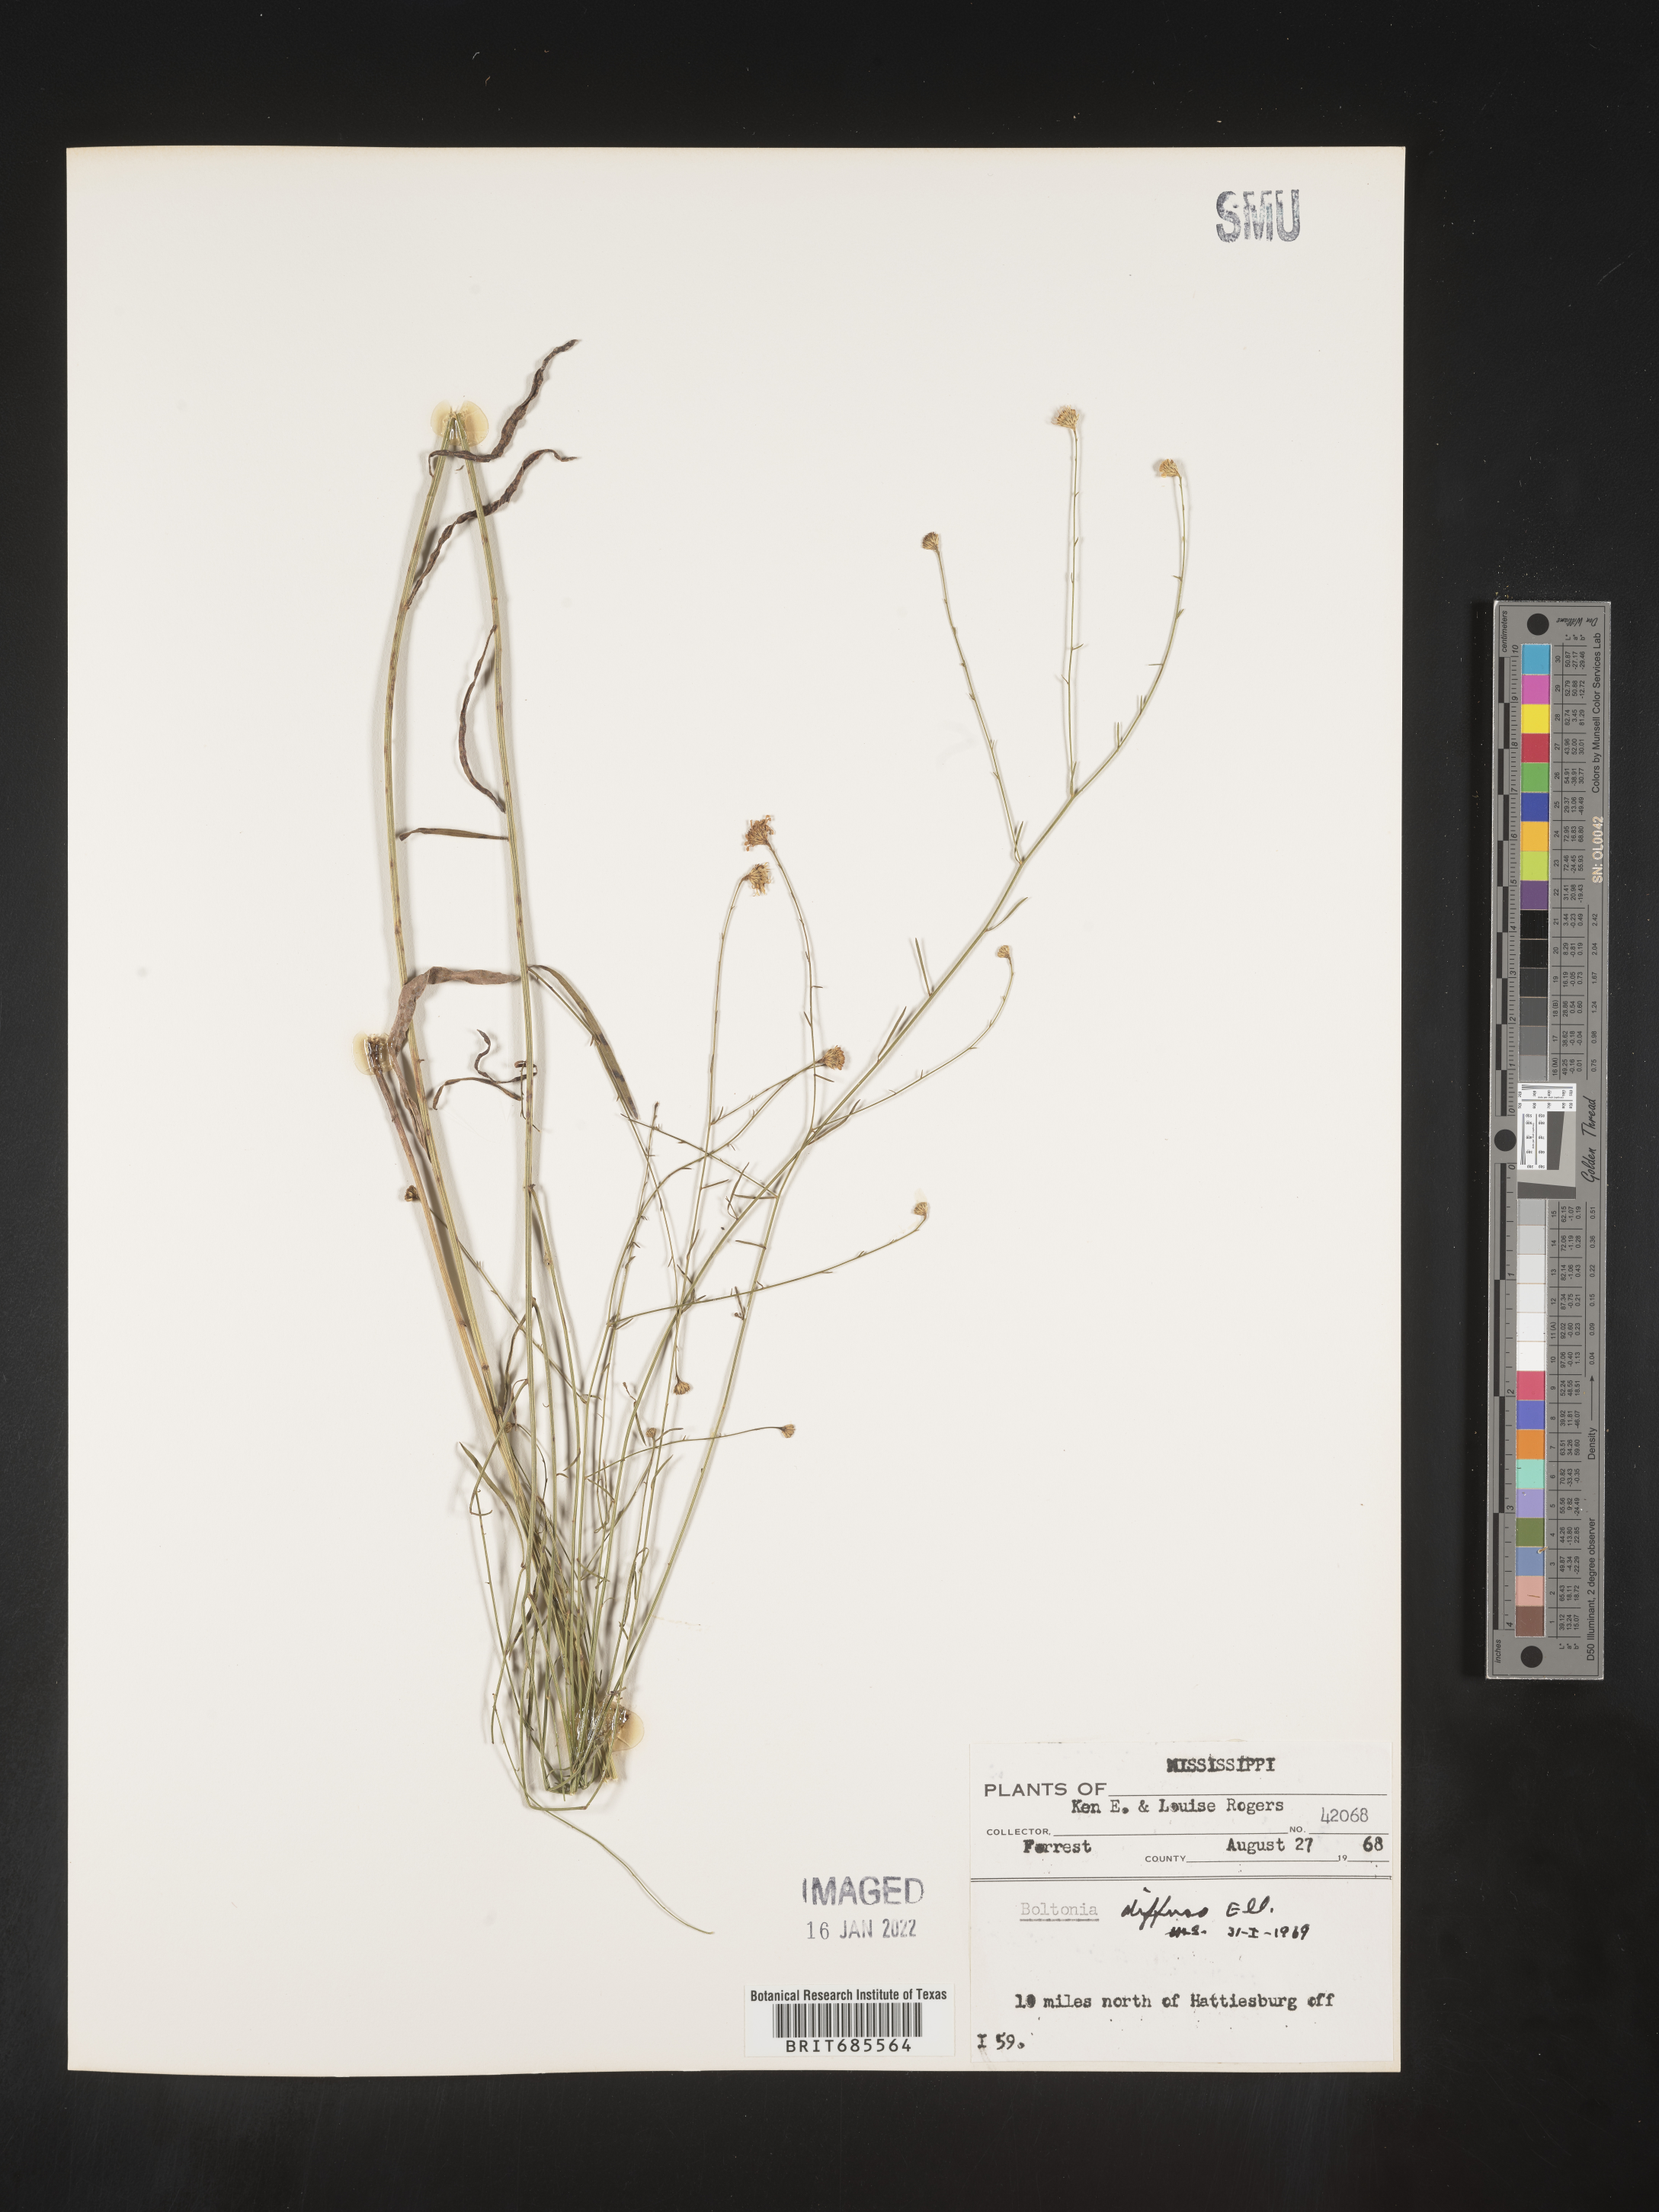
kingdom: Plantae
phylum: Tracheophyta
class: Magnoliopsida
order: Asterales
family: Asteraceae
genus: Boltonia
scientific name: Boltonia diffusa
